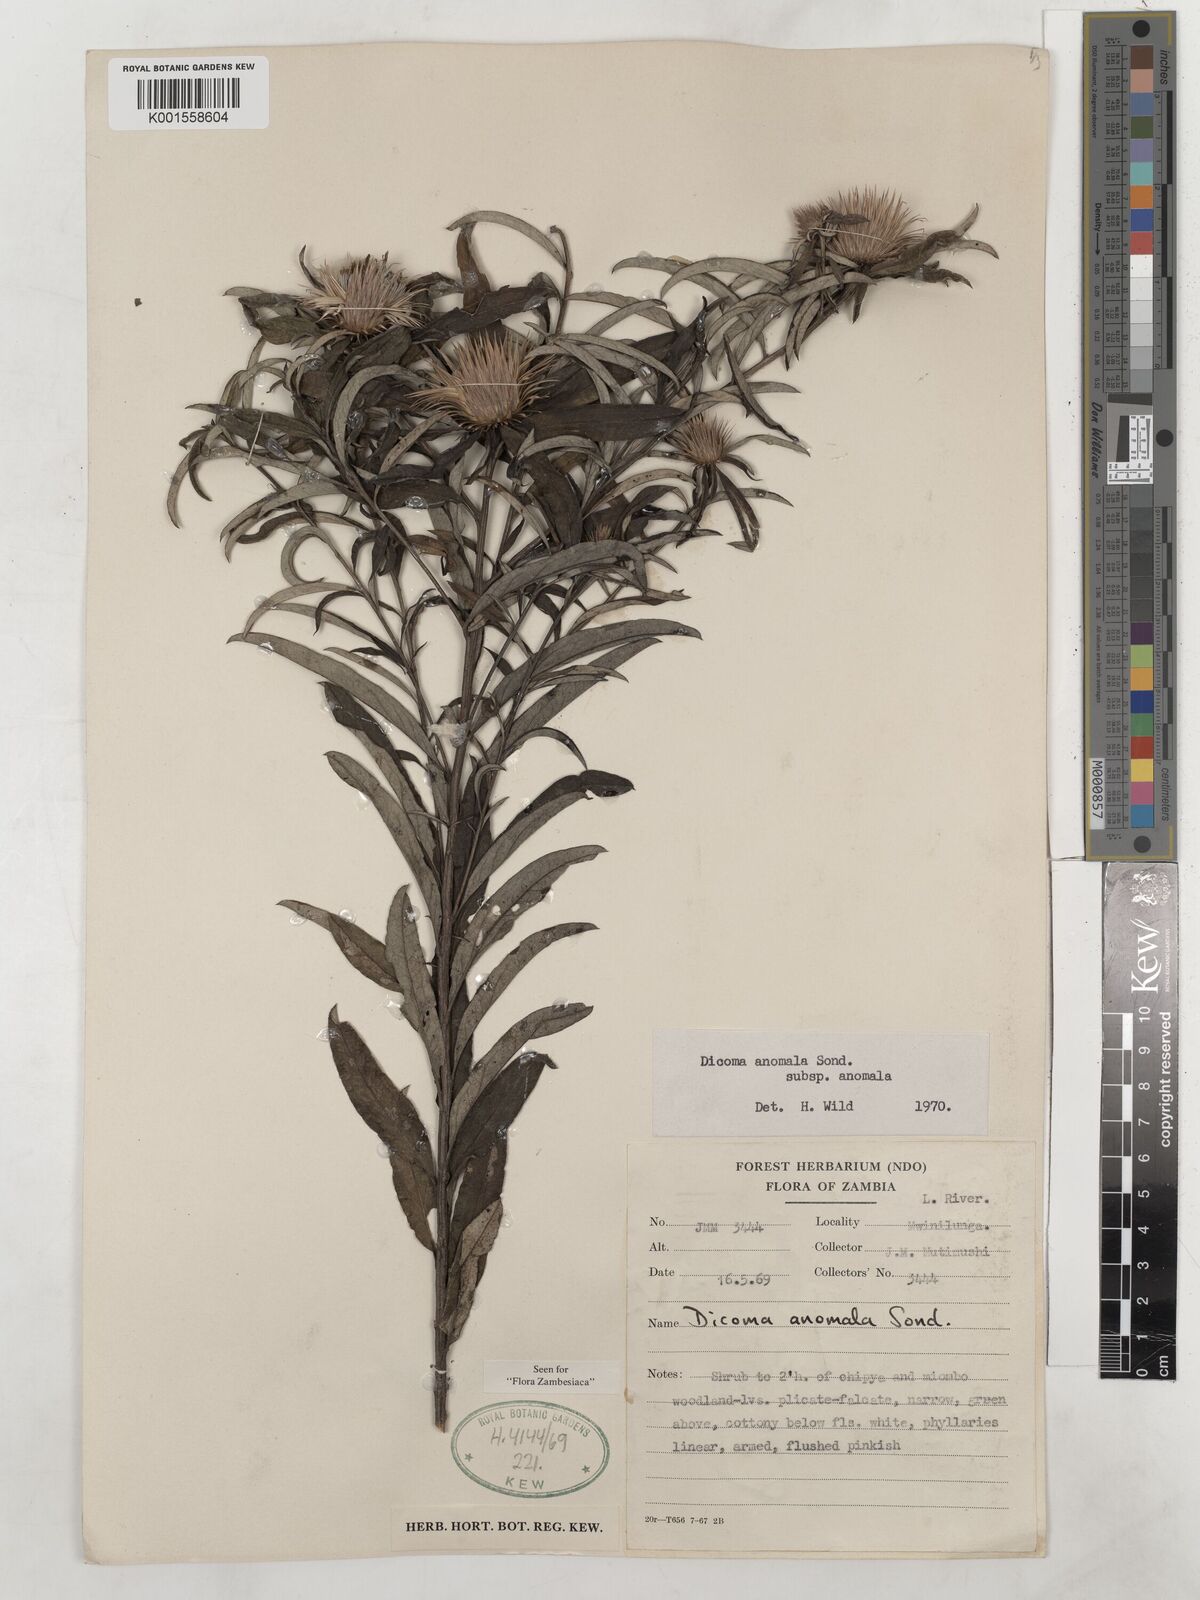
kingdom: Plantae
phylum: Tracheophyta
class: Magnoliopsida
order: Asterales
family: Asteraceae
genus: Dicoma
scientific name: Dicoma anomala
